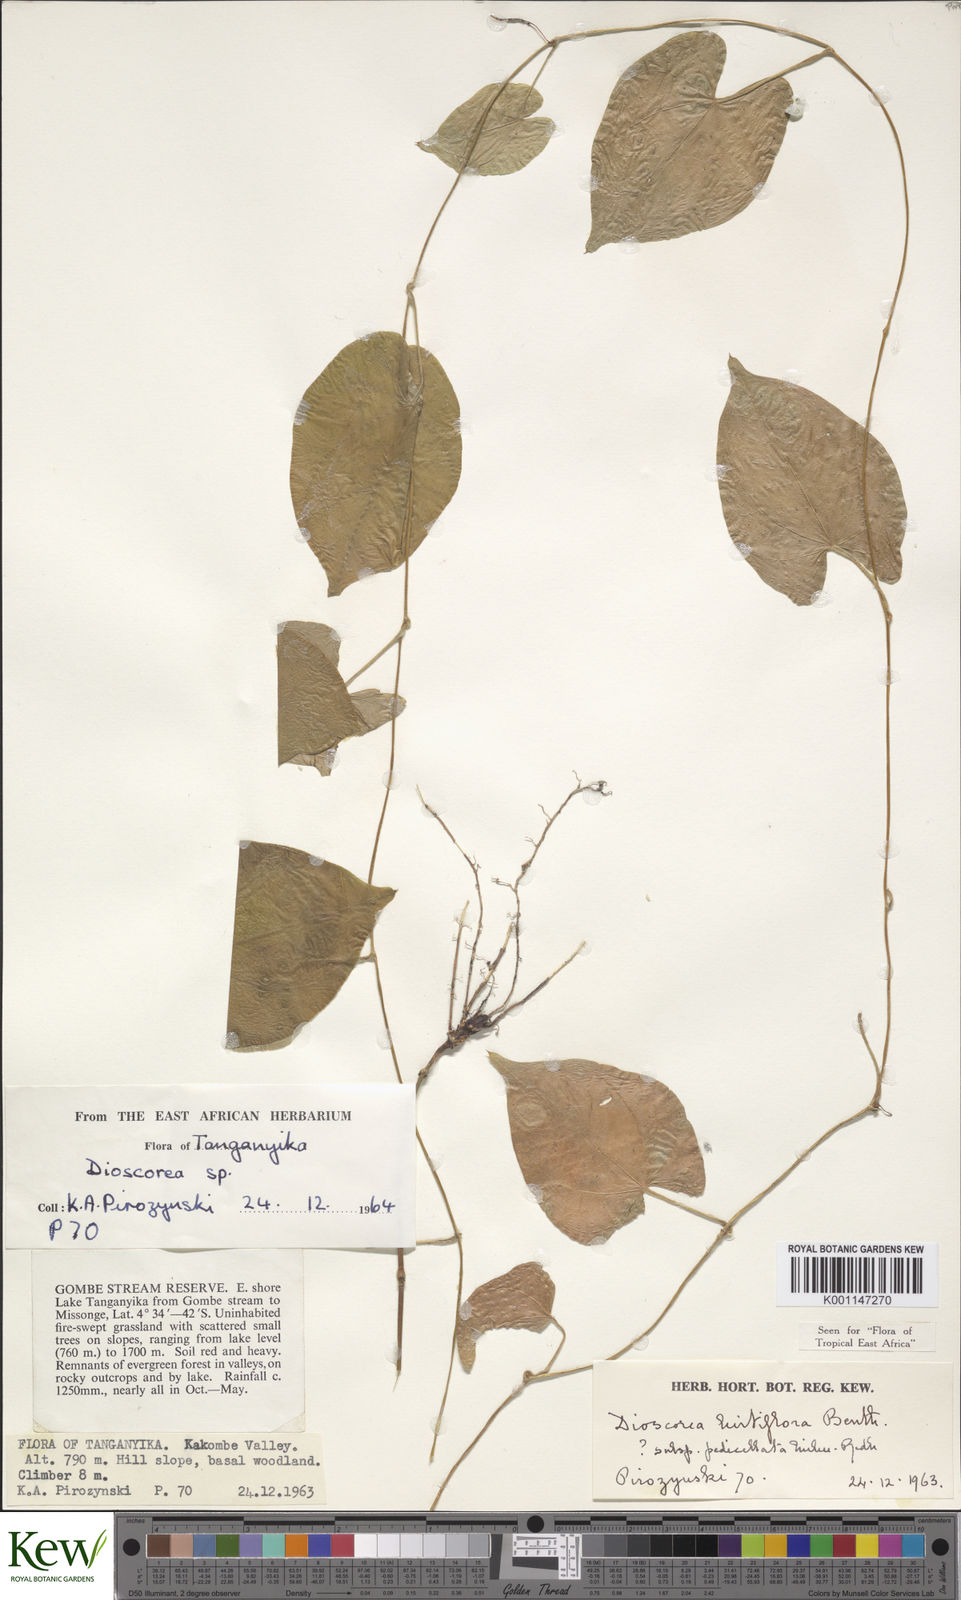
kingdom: Plantae
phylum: Tracheophyta
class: Liliopsida
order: Dioscoreales
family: Dioscoreaceae
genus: Dioscorea
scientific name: Dioscorea hirtiflora
